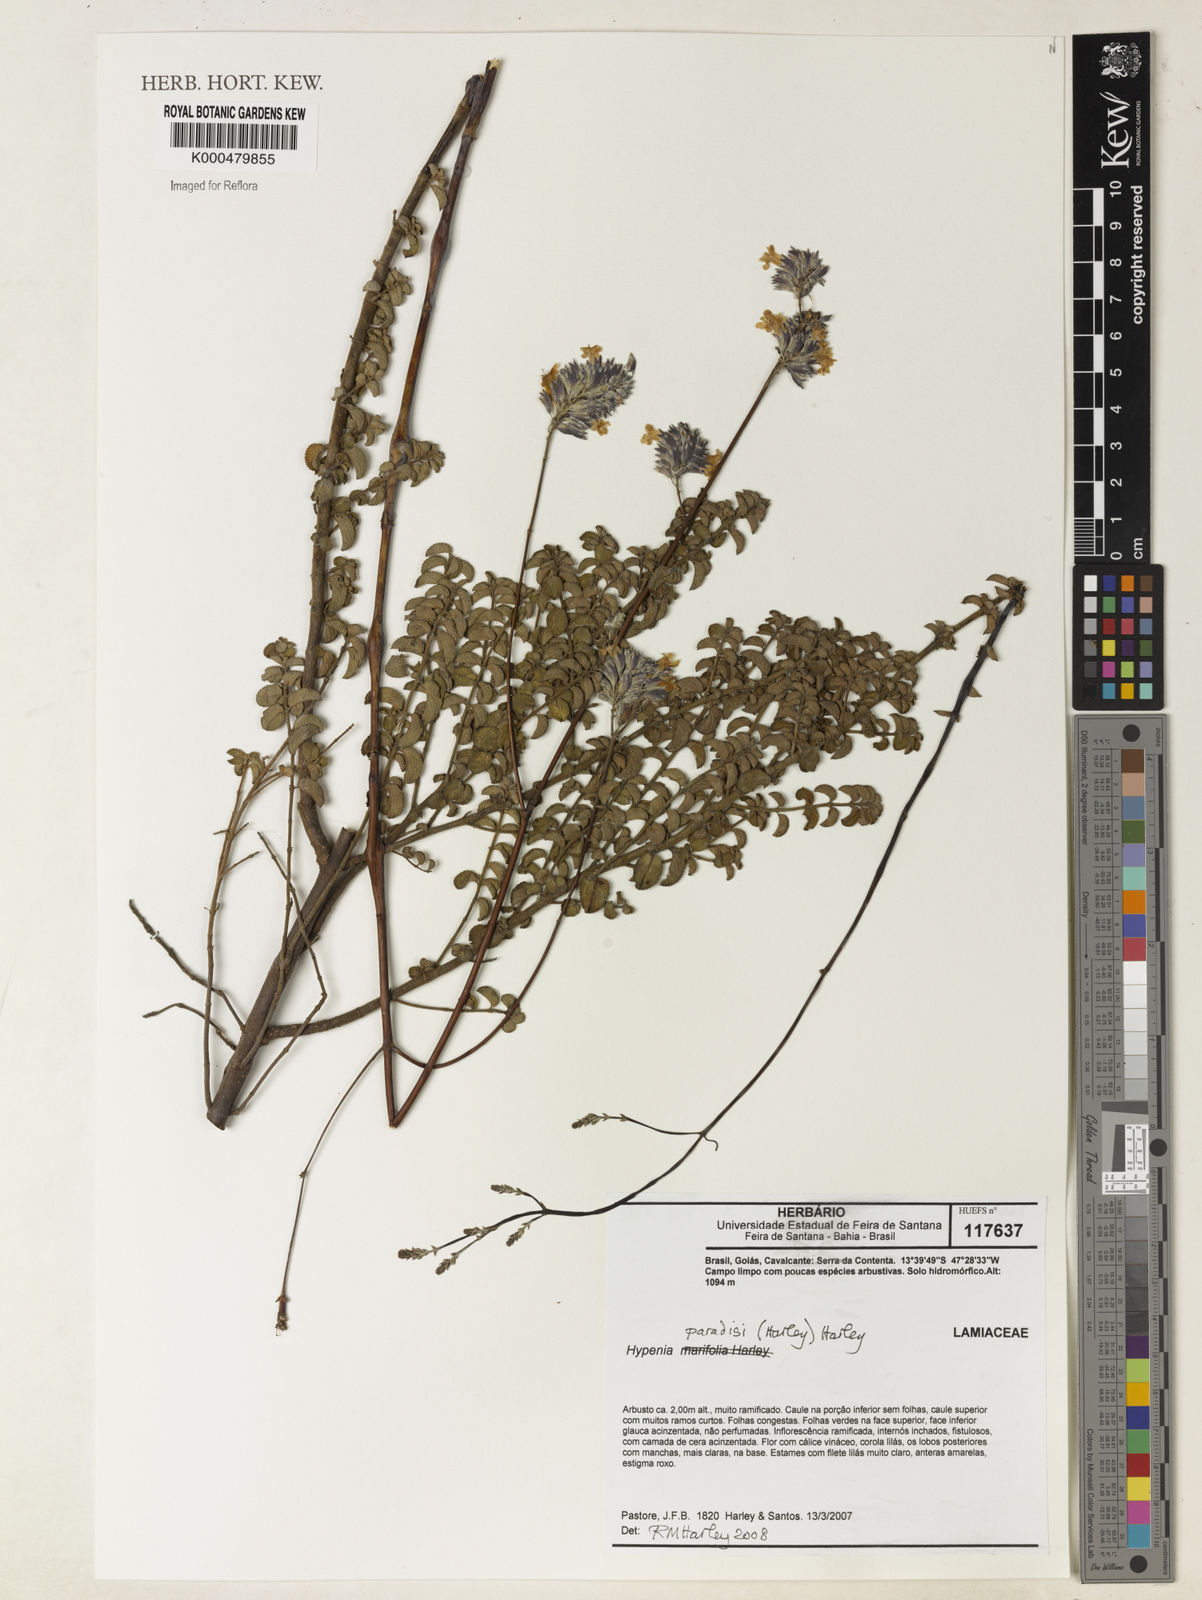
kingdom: Plantae
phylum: Tracheophyta
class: Magnoliopsida
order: Lamiales
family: Lamiaceae
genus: Hypenia
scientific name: Hypenia paradisi
